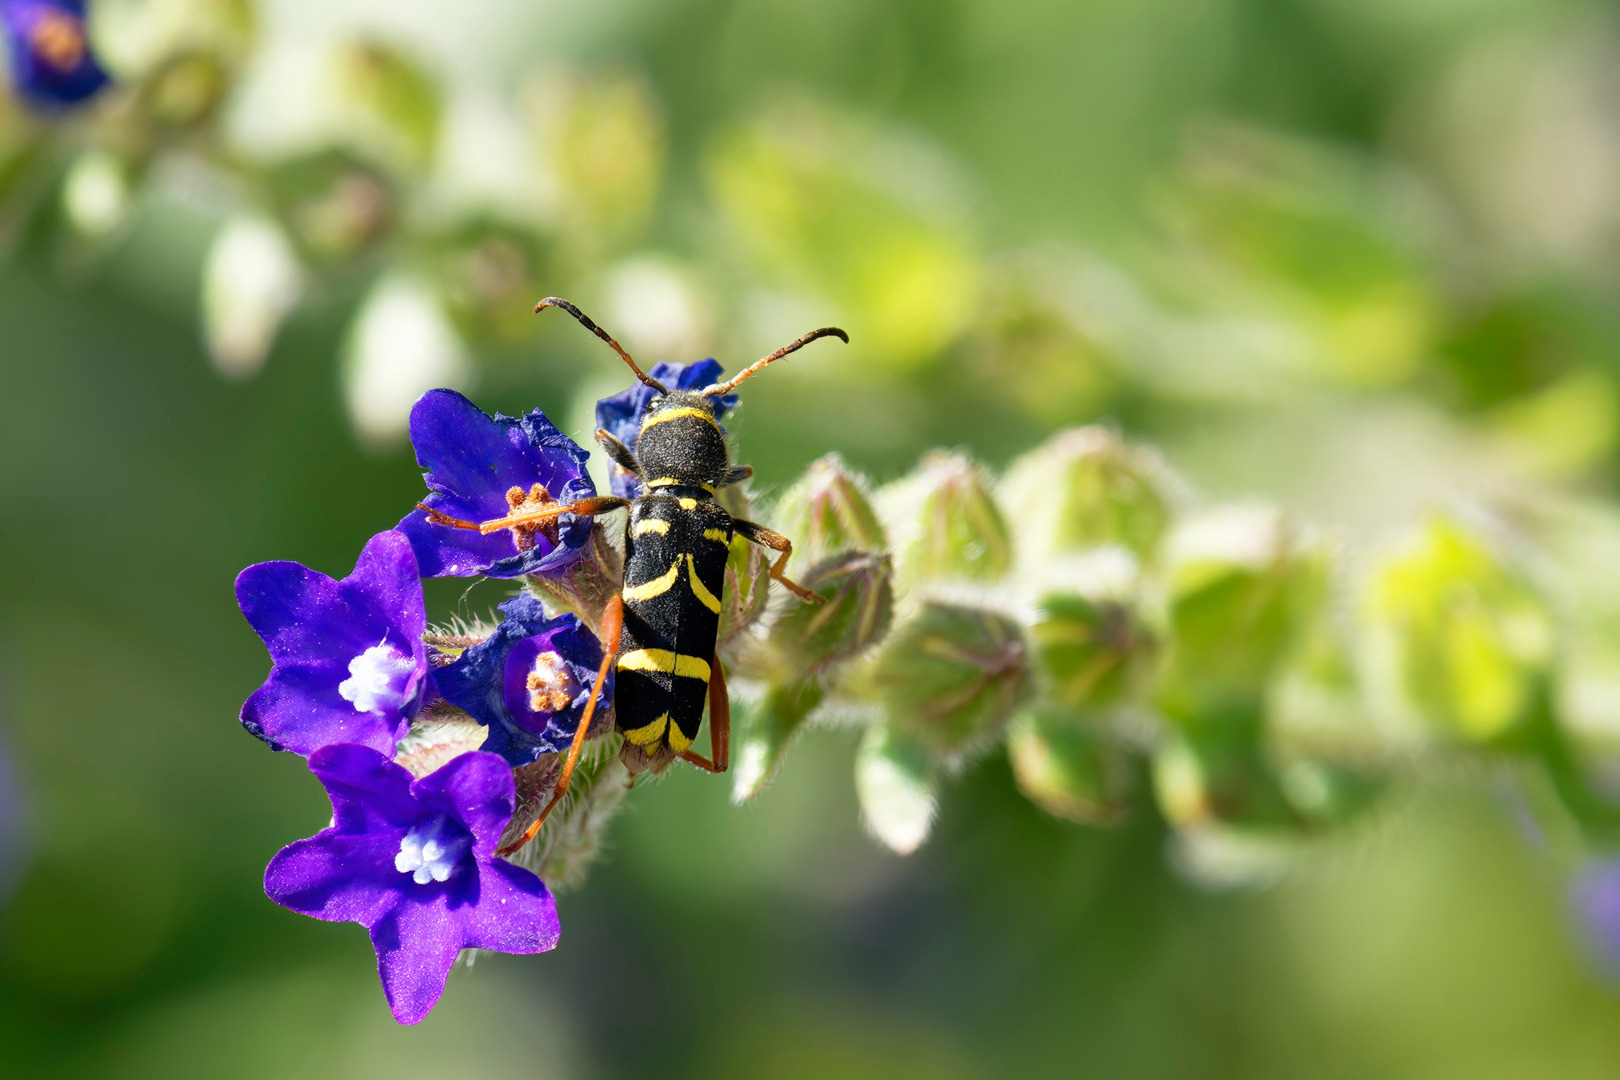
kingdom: Animalia
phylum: Arthropoda
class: Insecta
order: Coleoptera
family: Cerambycidae
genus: Clytus
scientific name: Clytus arietis
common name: Lille hvepsebuk
